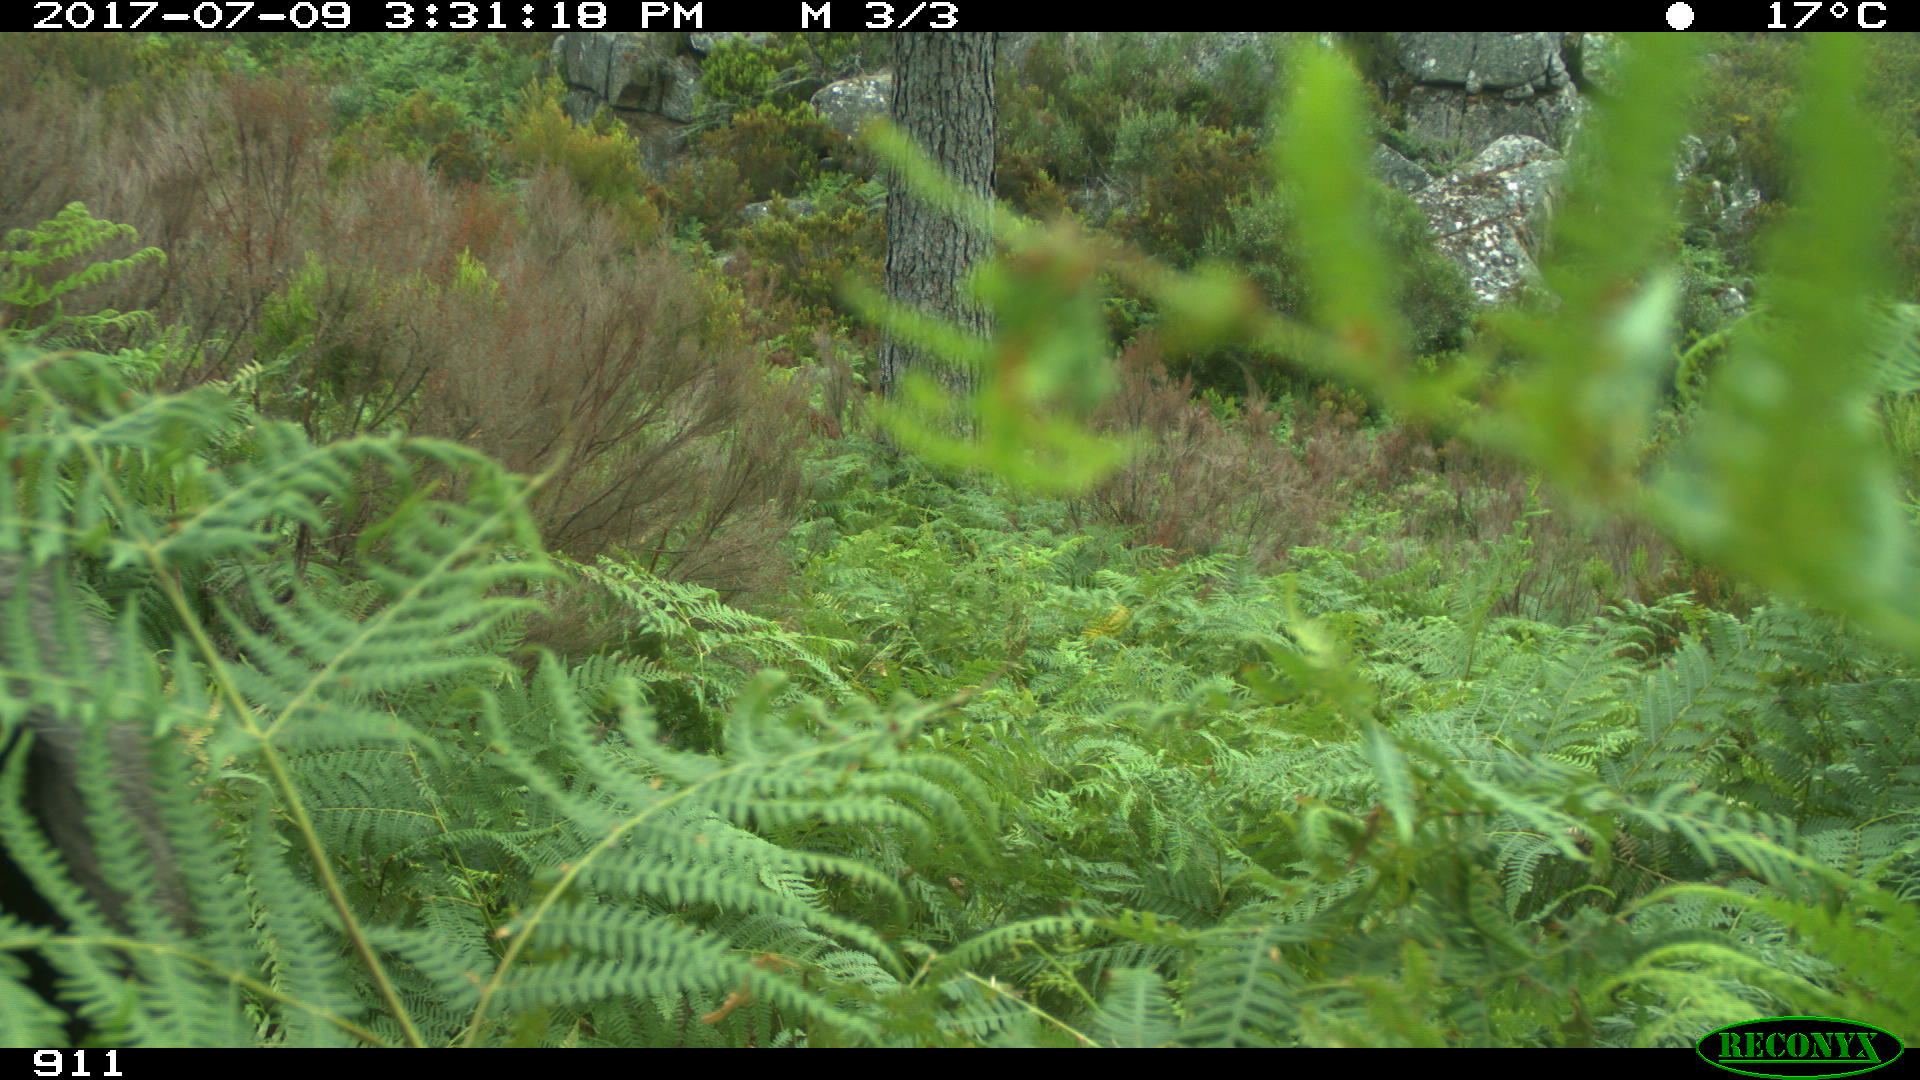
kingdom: Animalia
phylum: Chordata
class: Mammalia
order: Perissodactyla
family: Equidae
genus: Equus
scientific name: Equus caballus
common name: Horse
